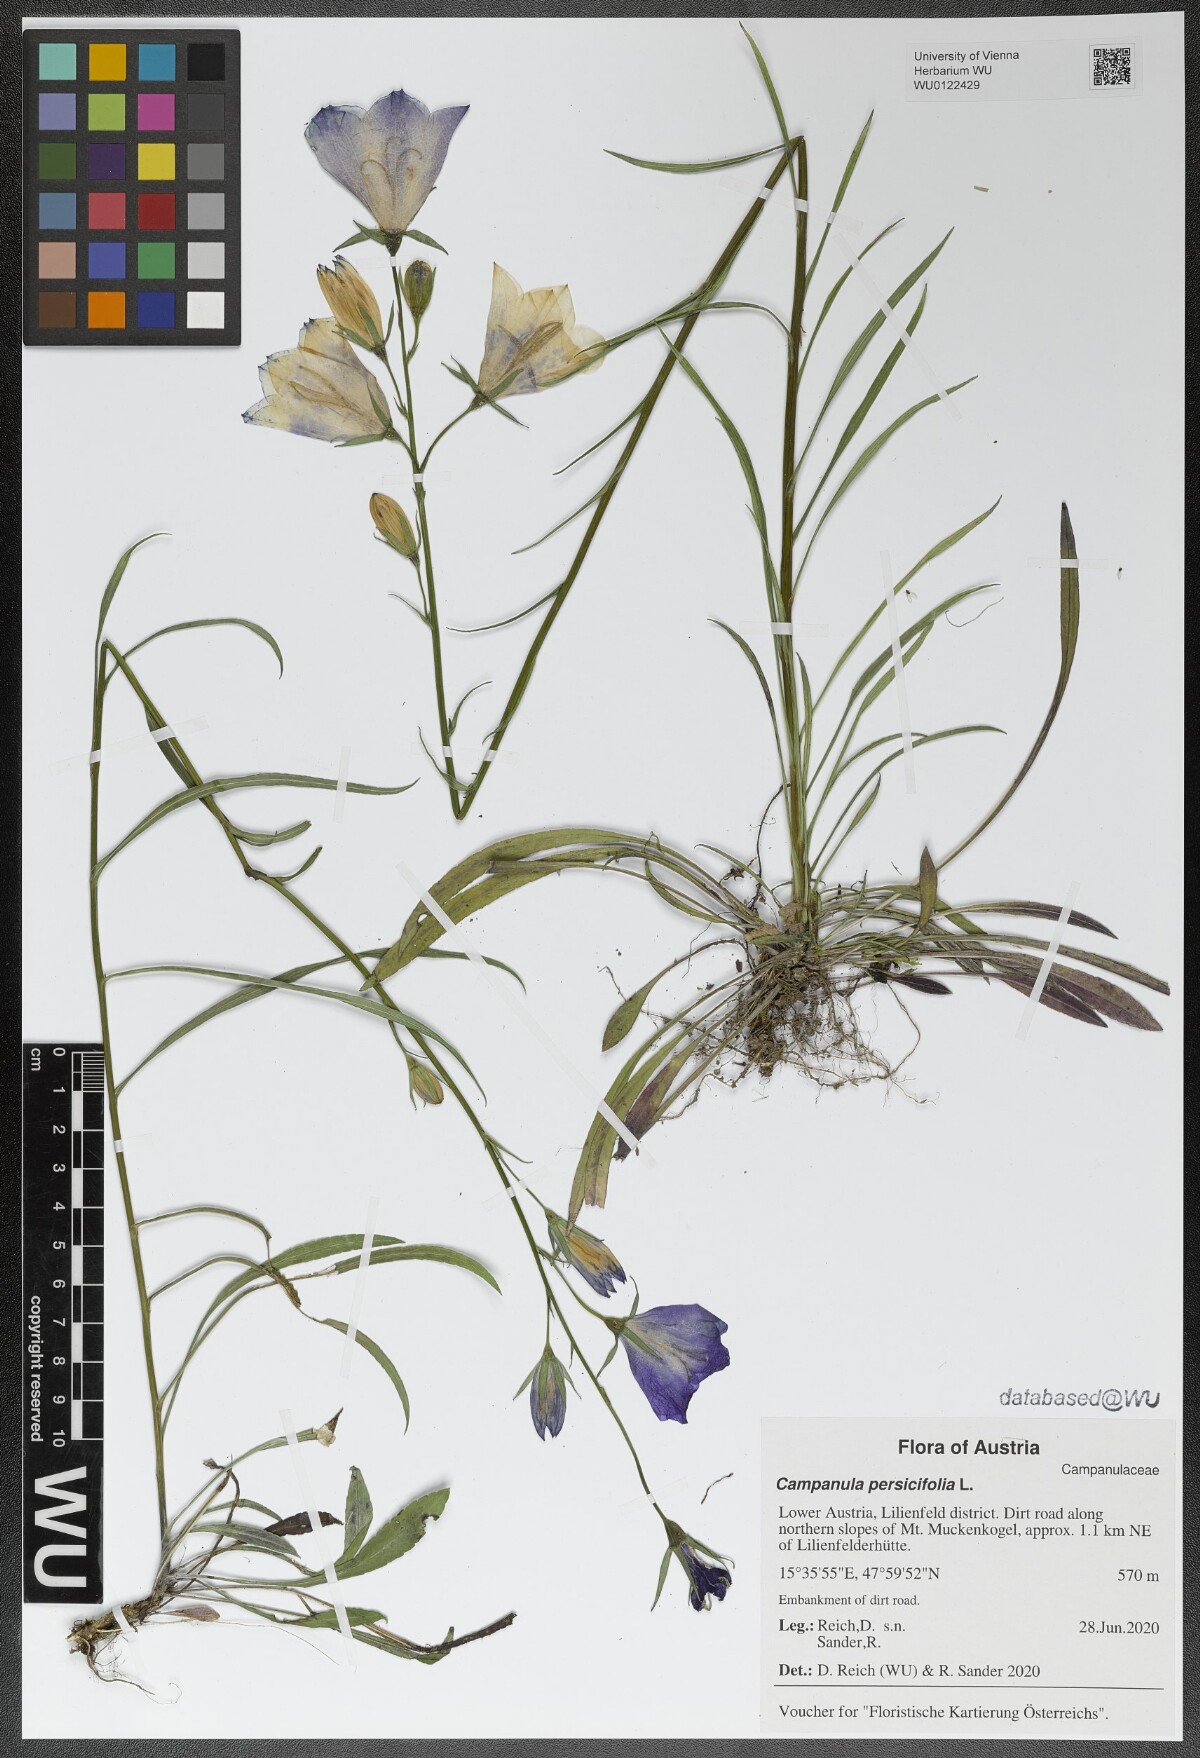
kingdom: Plantae
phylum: Tracheophyta
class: Magnoliopsida
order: Asterales
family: Campanulaceae
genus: Campanula
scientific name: Campanula persicifolia
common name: Peach-leaved bellflower
